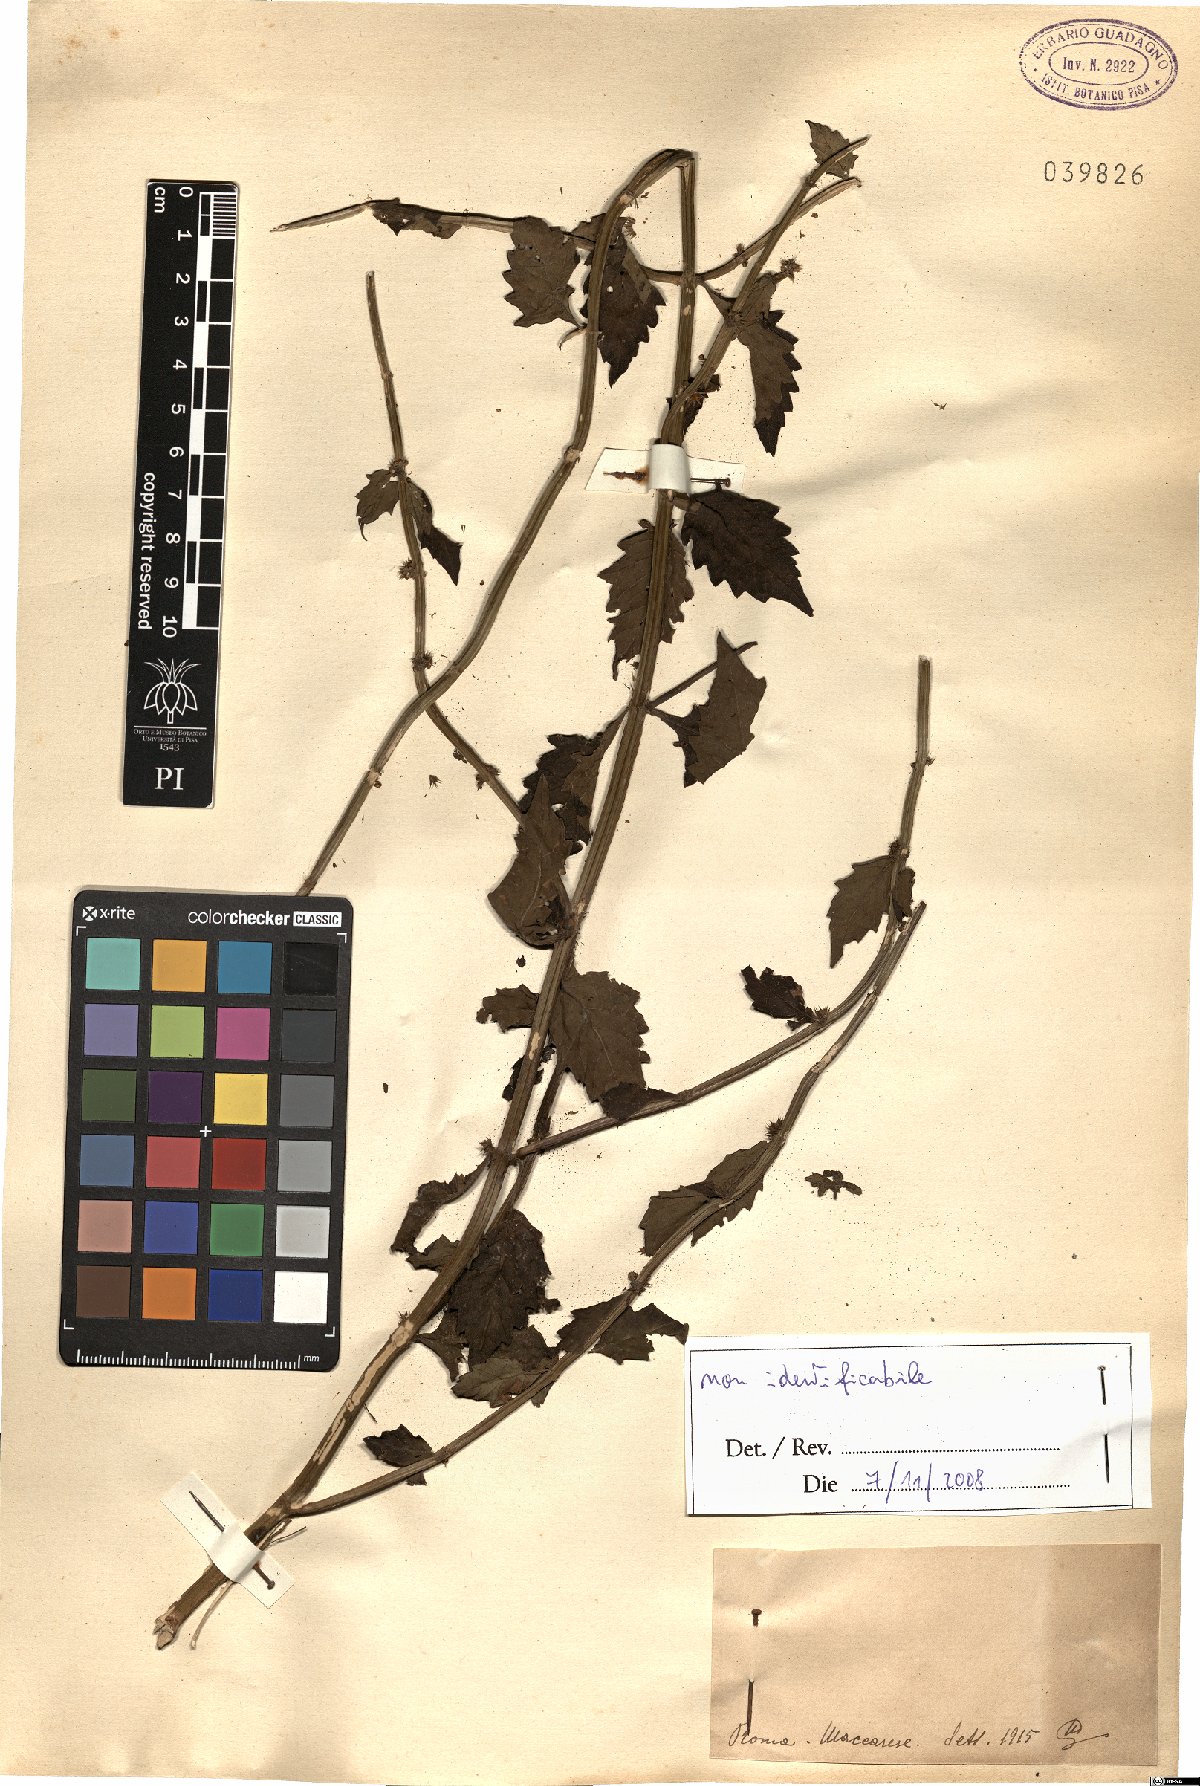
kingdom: Plantae
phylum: Tracheophyta
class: Magnoliopsida
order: Lamiales
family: Lamiaceae
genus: Lycopus
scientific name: Lycopus
